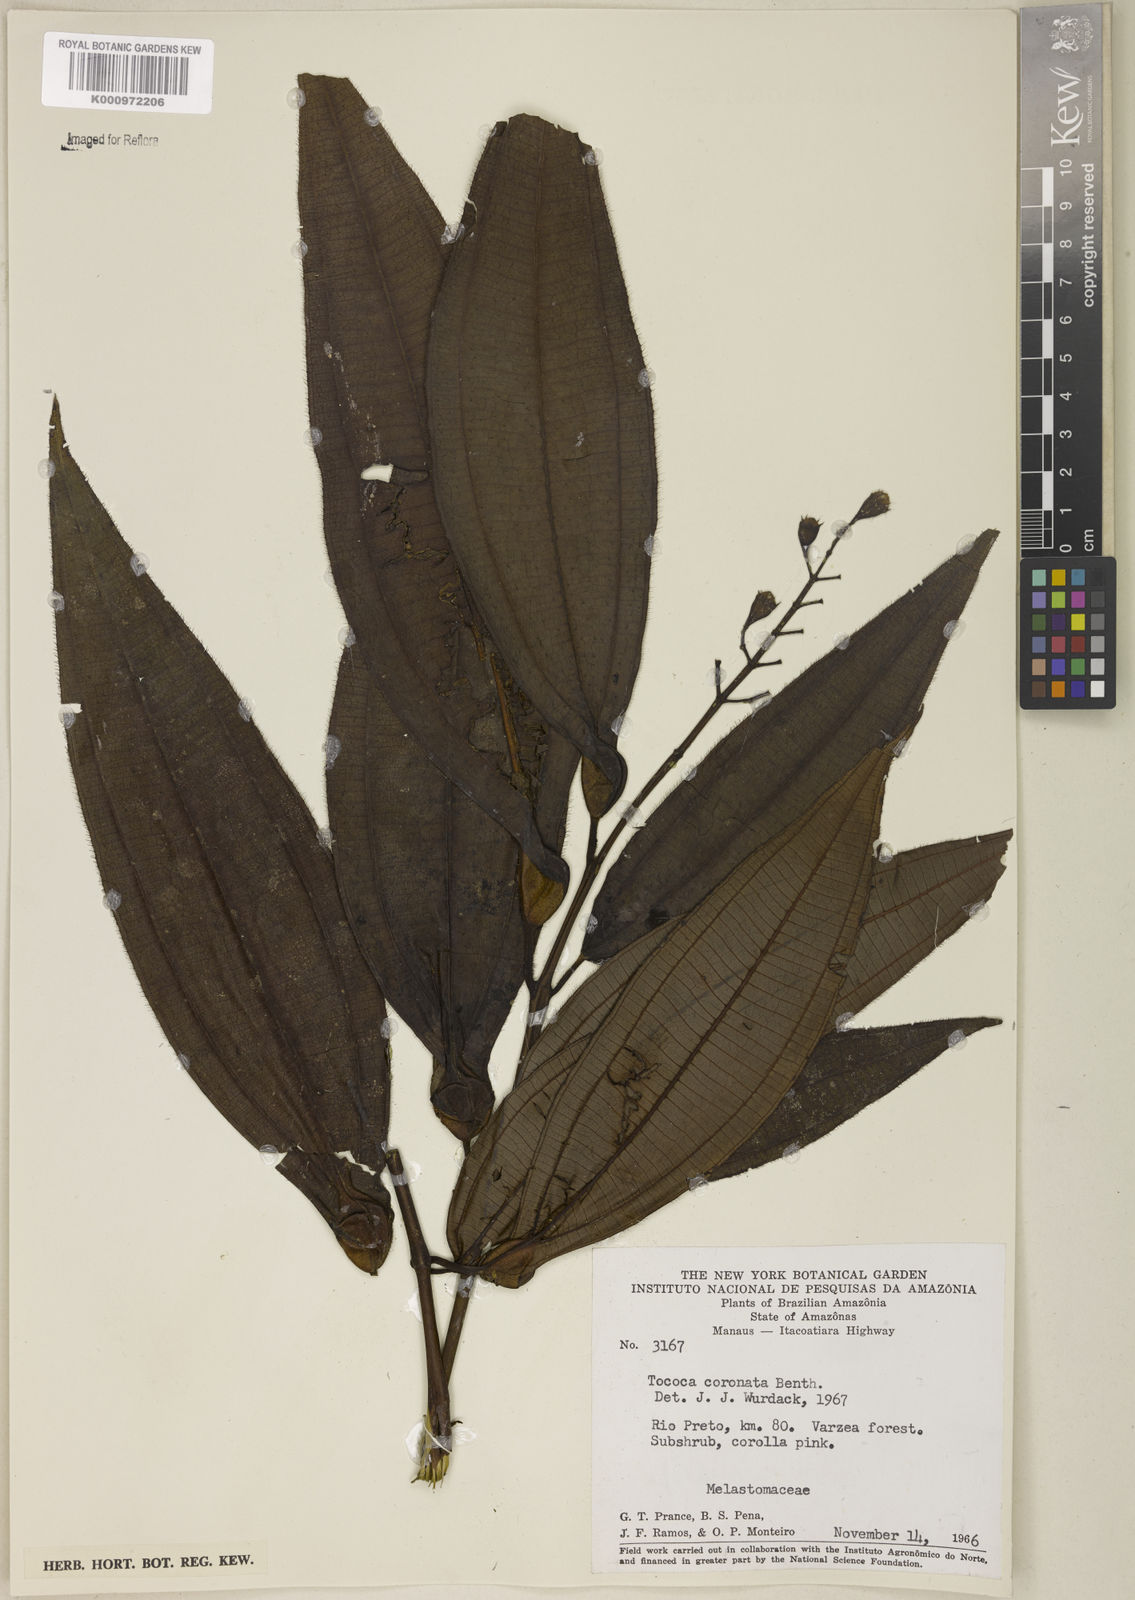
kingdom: Plantae
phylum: Tracheophyta
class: Magnoliopsida
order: Myrtales
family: Melastomataceae
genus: Miconia
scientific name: Miconia tococoronata
